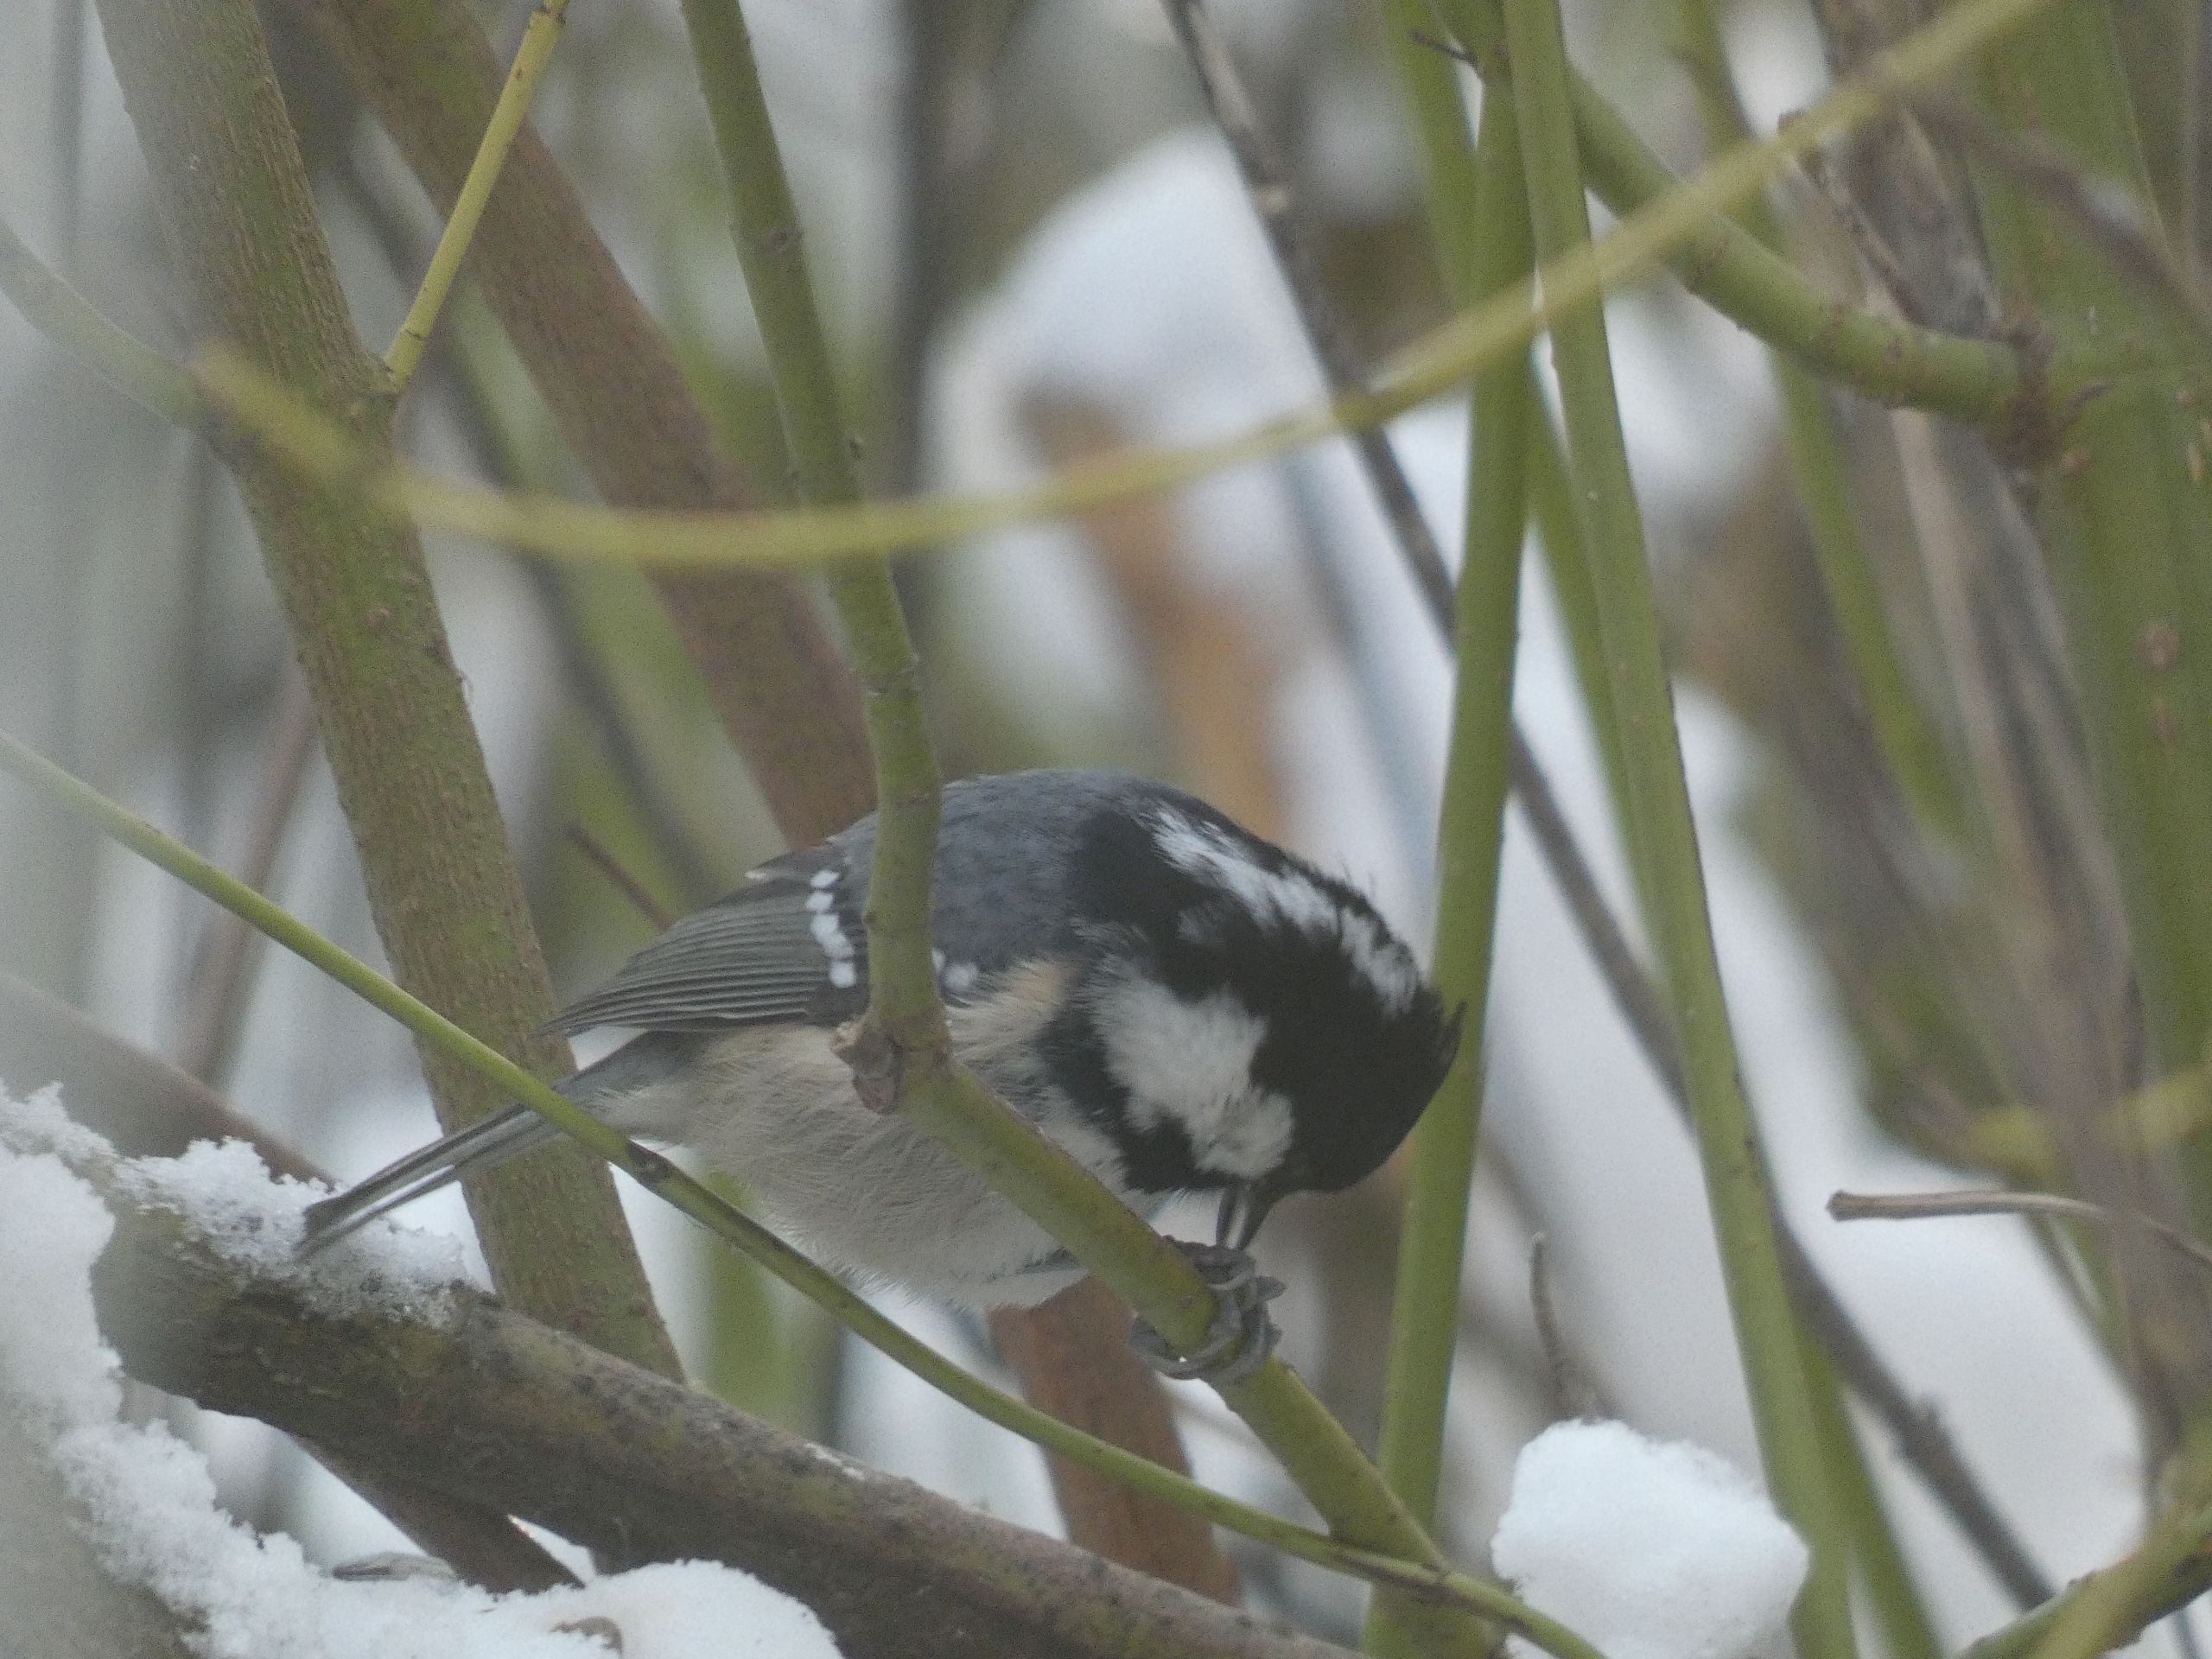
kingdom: Animalia
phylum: Chordata
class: Aves
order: Passeriformes
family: Paridae
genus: Periparus
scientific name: Periparus ater
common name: Sortmejse
